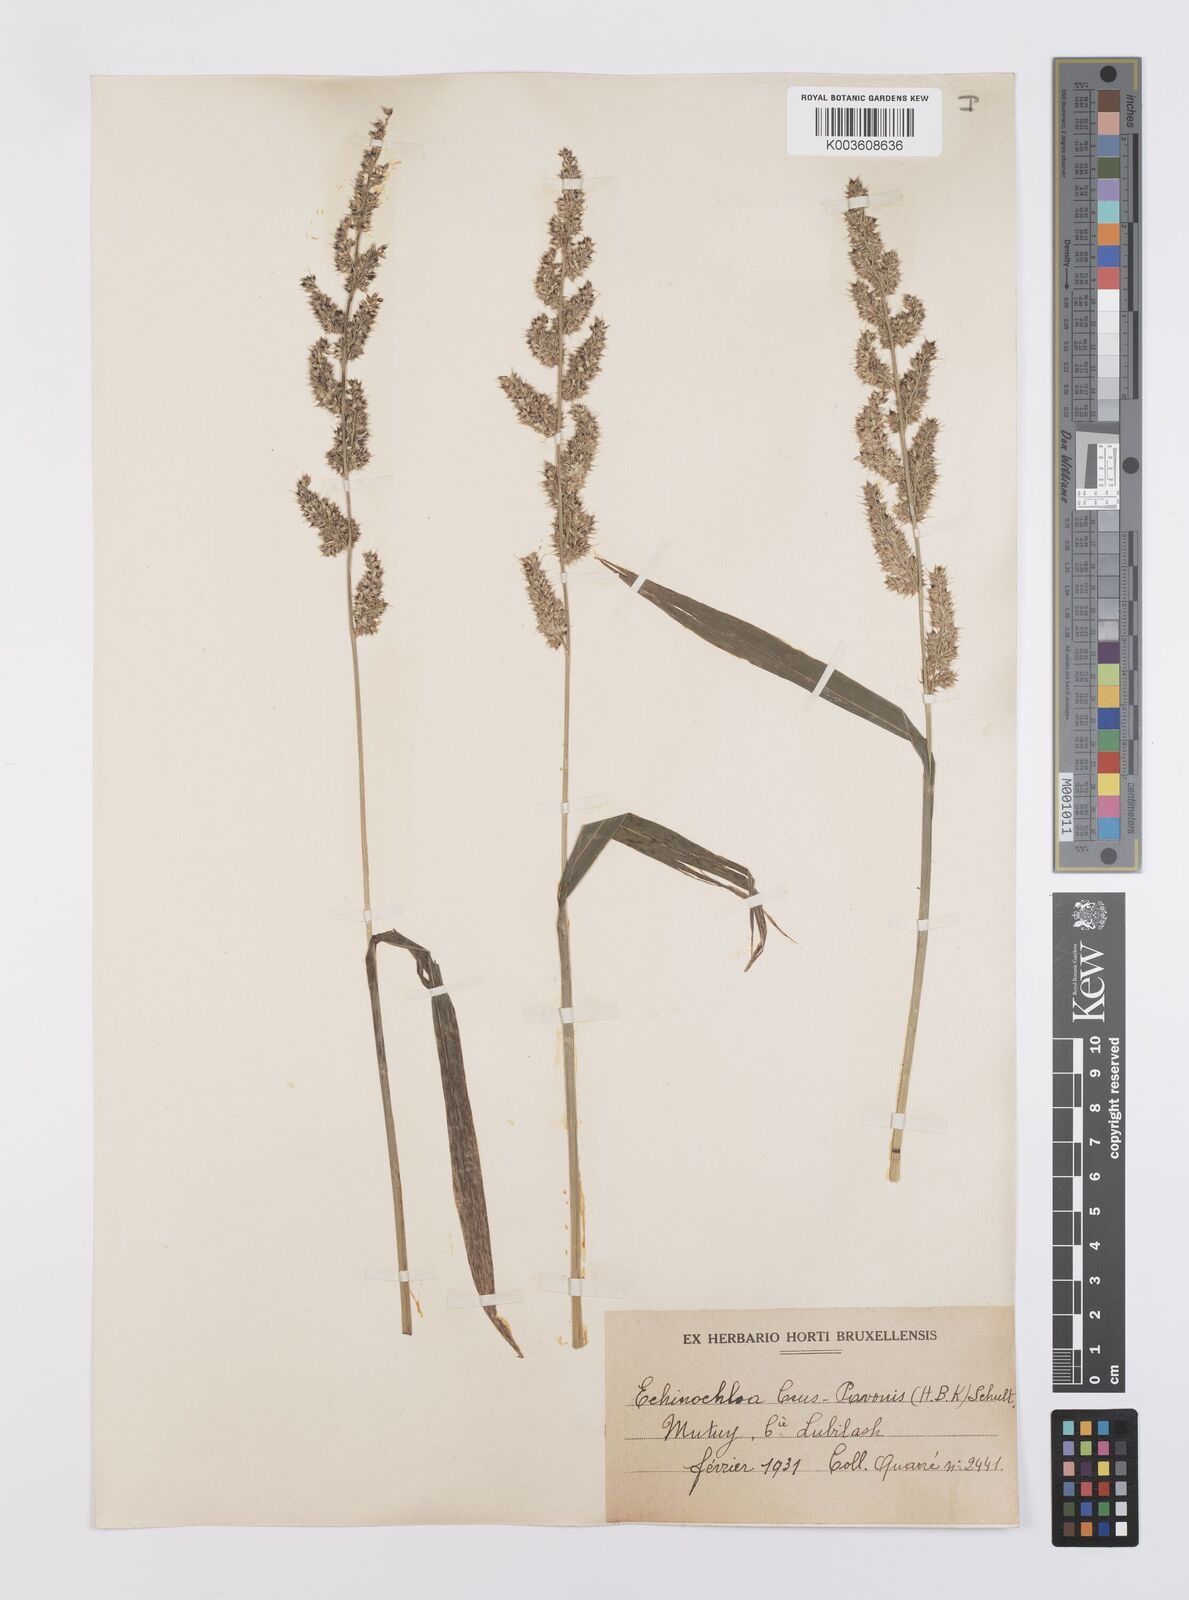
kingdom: Plantae
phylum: Tracheophyta
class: Liliopsida
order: Poales
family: Poaceae
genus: Echinochloa
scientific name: Echinochloa crus-pavonis
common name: Gulf cockspur grass
